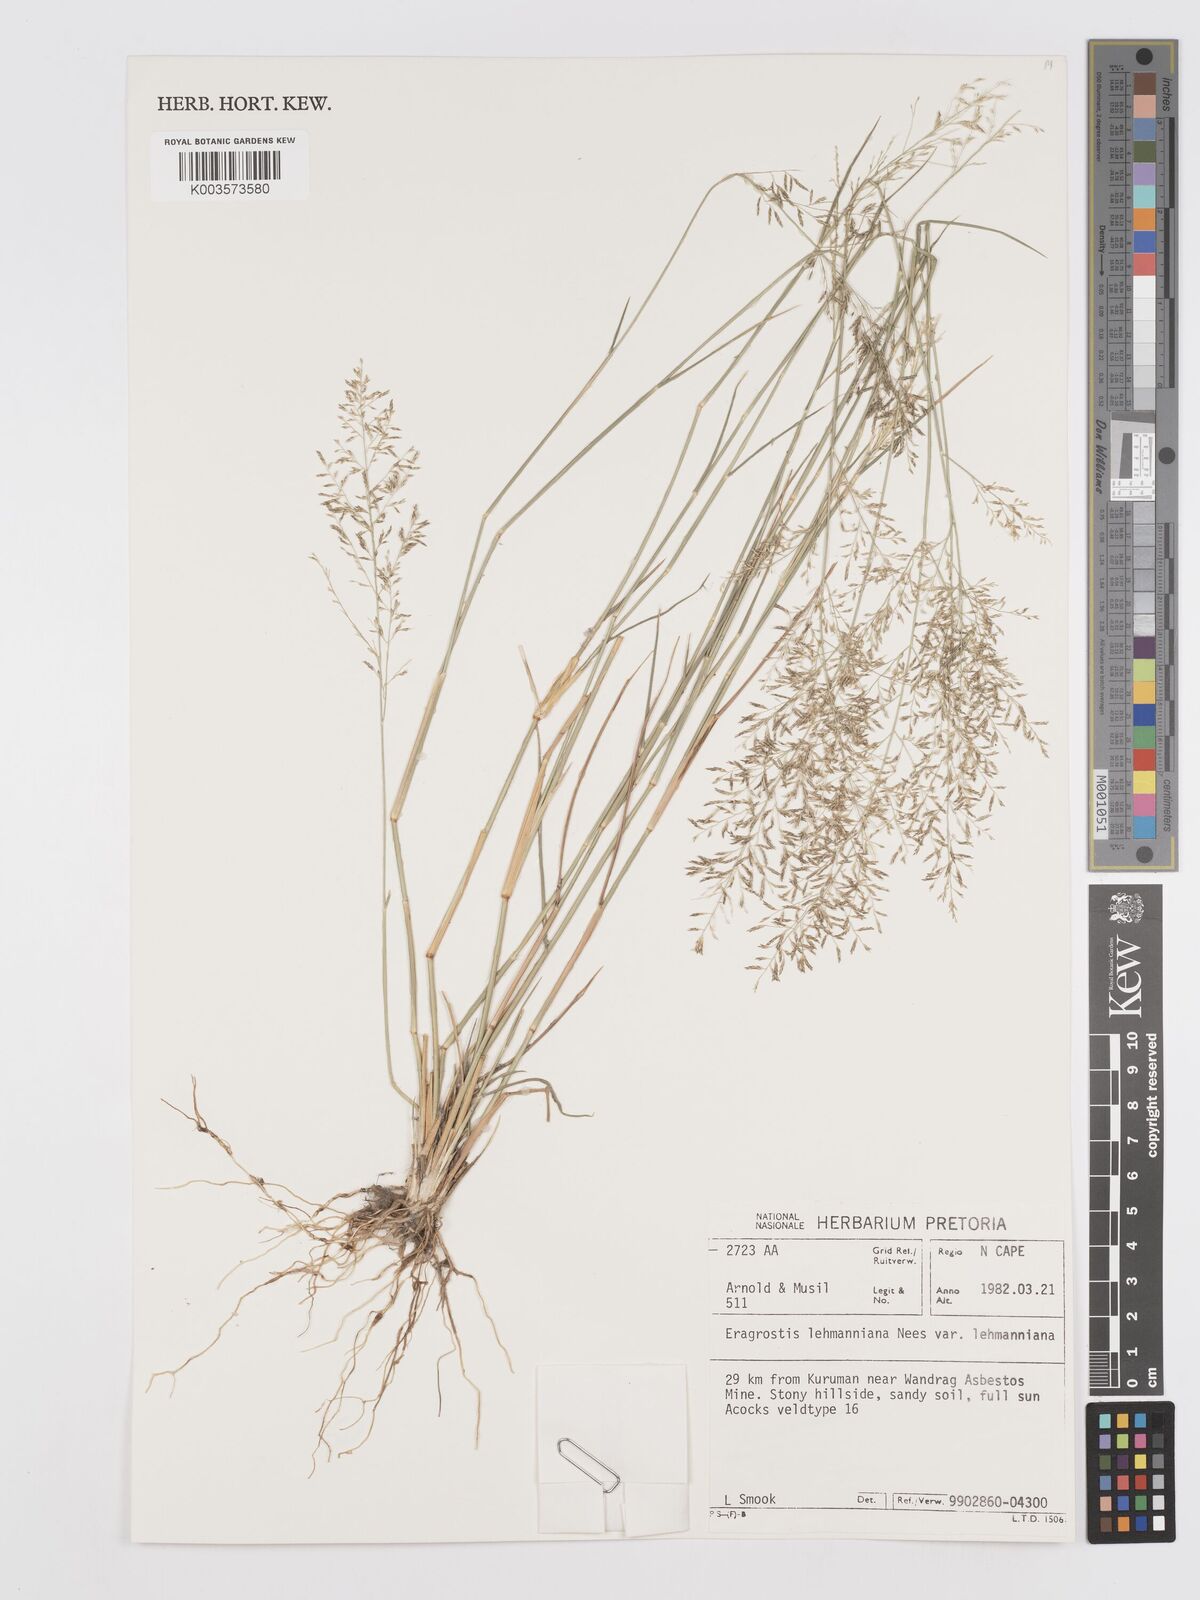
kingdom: Plantae
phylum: Tracheophyta
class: Liliopsida
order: Poales
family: Poaceae
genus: Eragrostis
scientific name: Eragrostis lehmanniana
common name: Lehmann lovegrass
